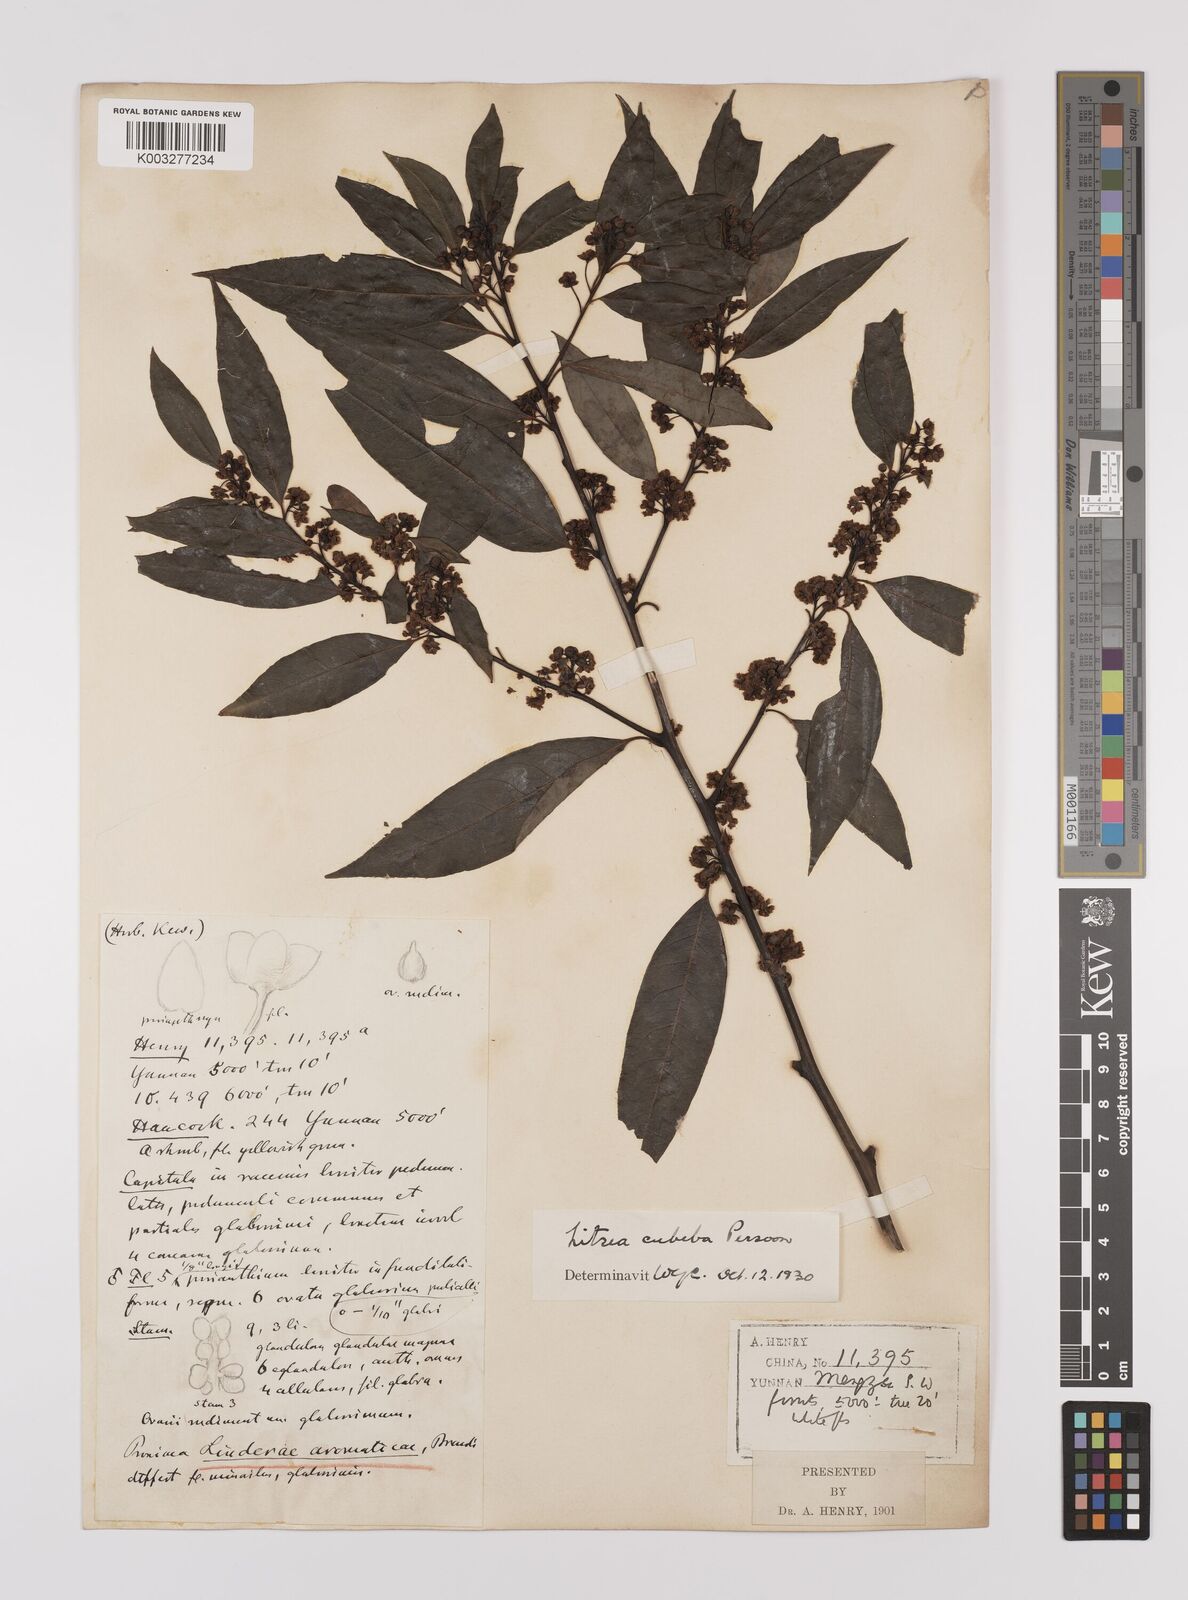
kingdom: Plantae
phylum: Tracheophyta
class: Magnoliopsida
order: Laurales
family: Lauraceae
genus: Lindera
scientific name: Lindera pipericarpa
